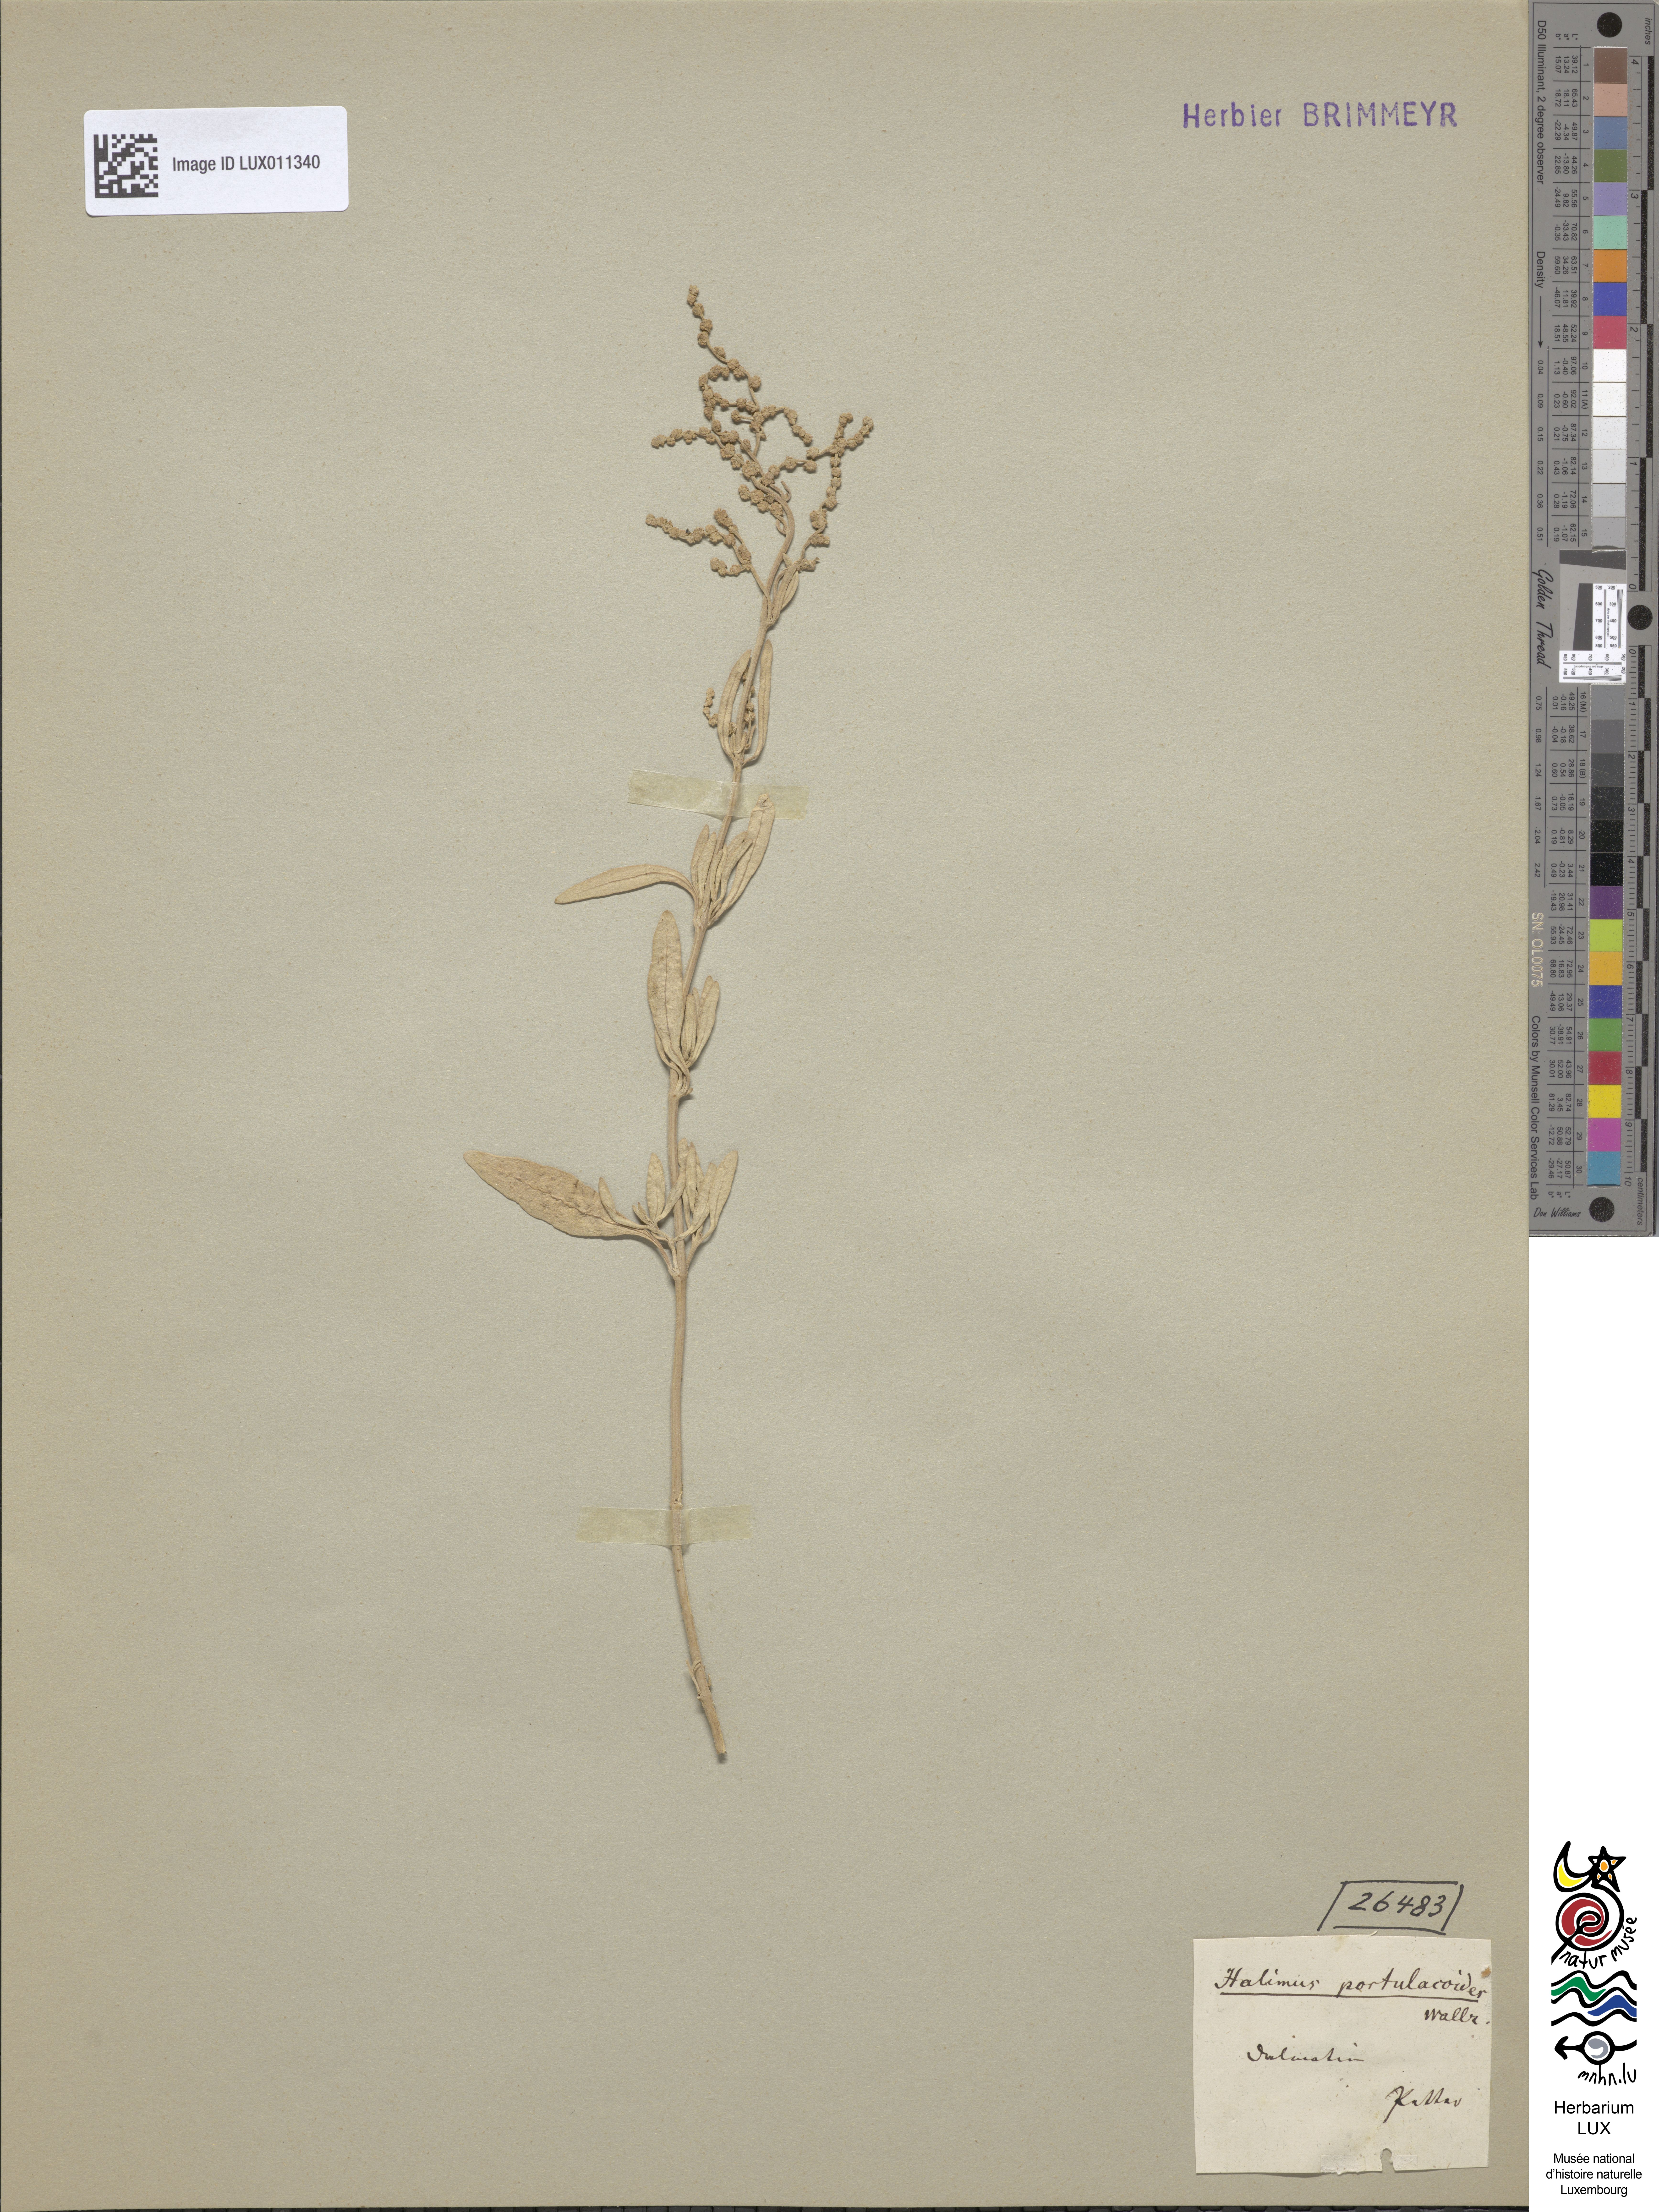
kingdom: Plantae
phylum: Tracheophyta
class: Magnoliopsida
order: Caryophyllales
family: Amaranthaceae
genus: Halimione
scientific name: Halimione portulacoides
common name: Sea-purslane
